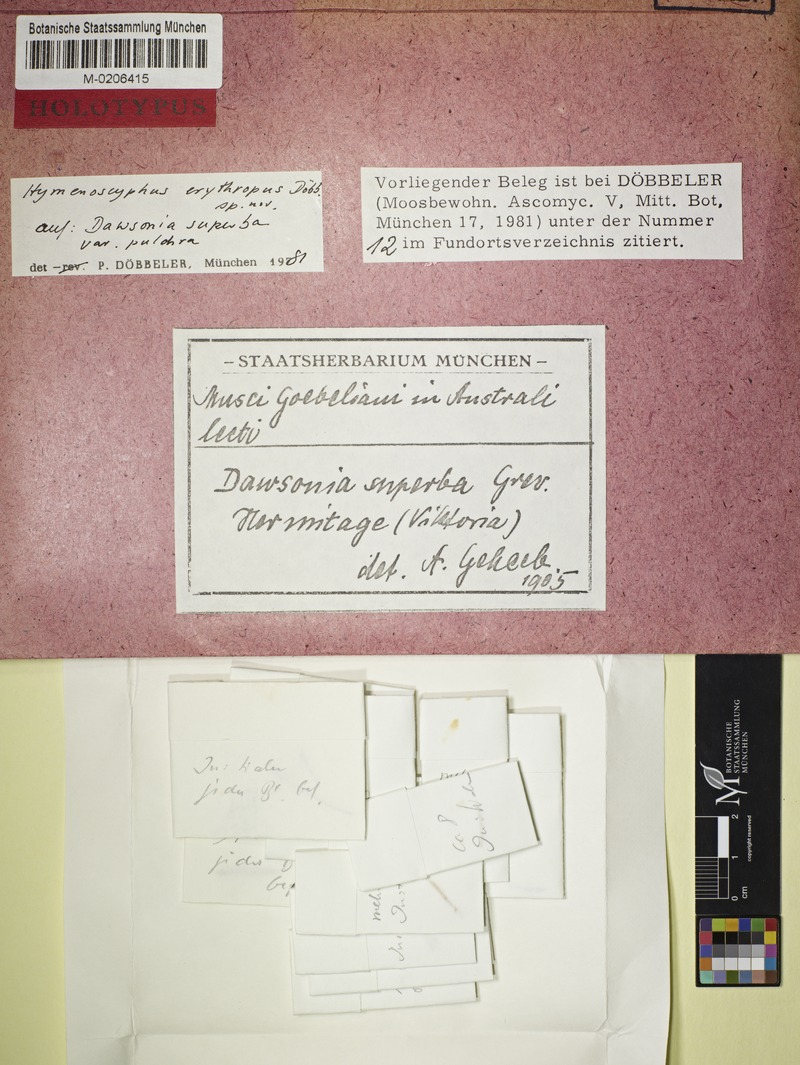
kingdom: Plantae
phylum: Bryophyta
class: Polytrichopsida
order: Polytrichales
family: Polytrichaceae
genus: Dawsonia
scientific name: Dawsonia superba
